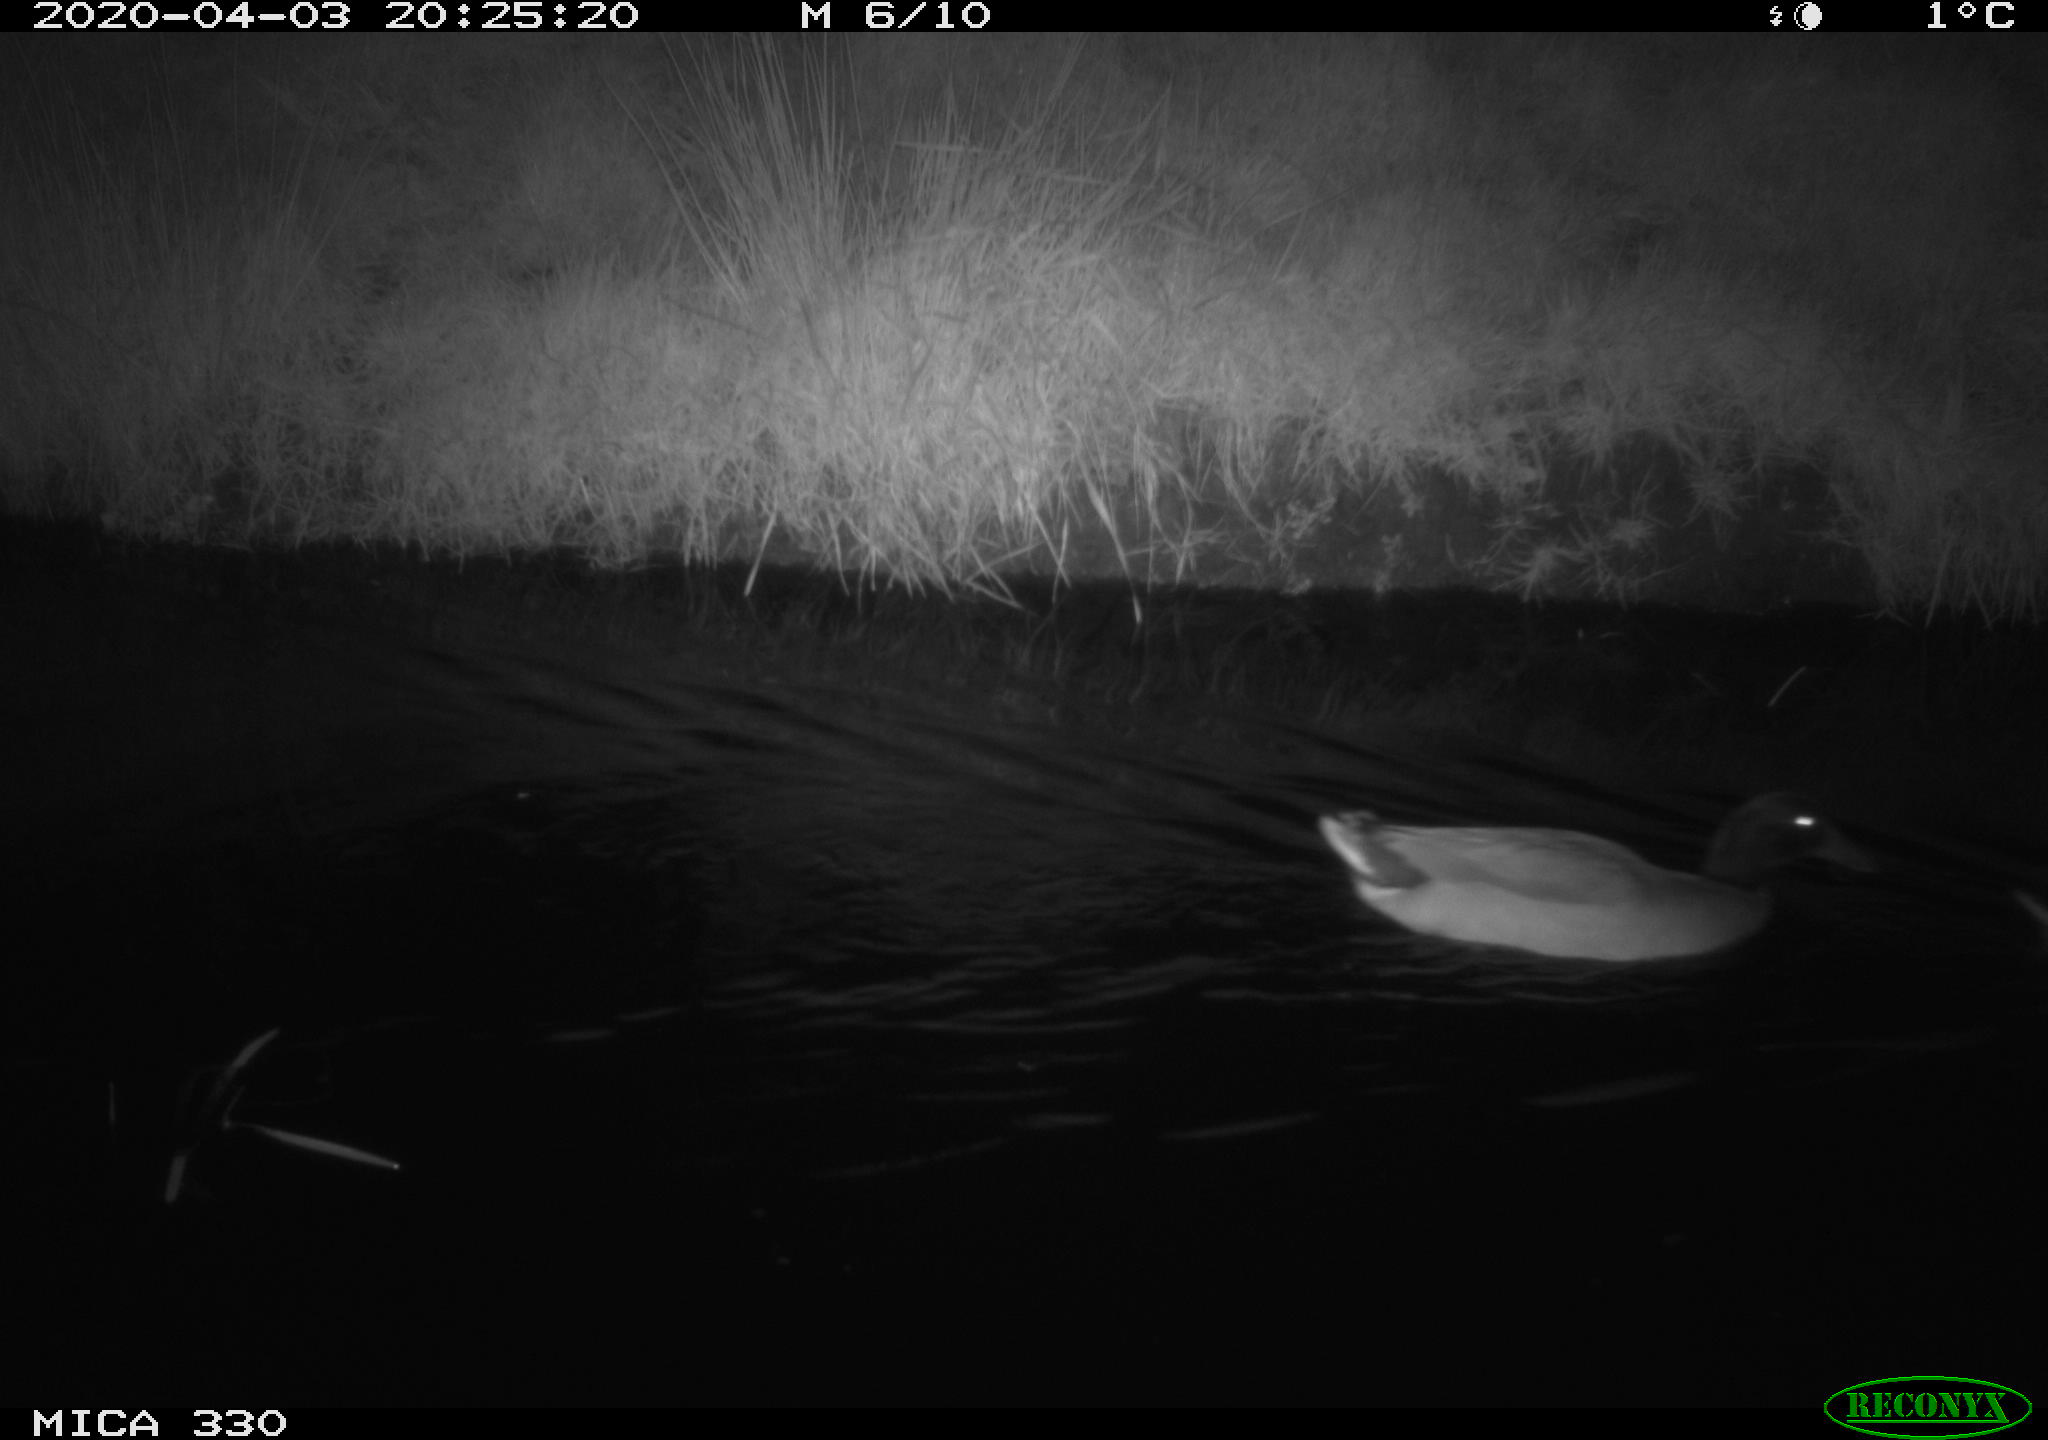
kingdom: Animalia
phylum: Chordata
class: Aves
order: Anseriformes
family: Anatidae
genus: Anas
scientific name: Anas platyrhynchos
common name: Mallard
